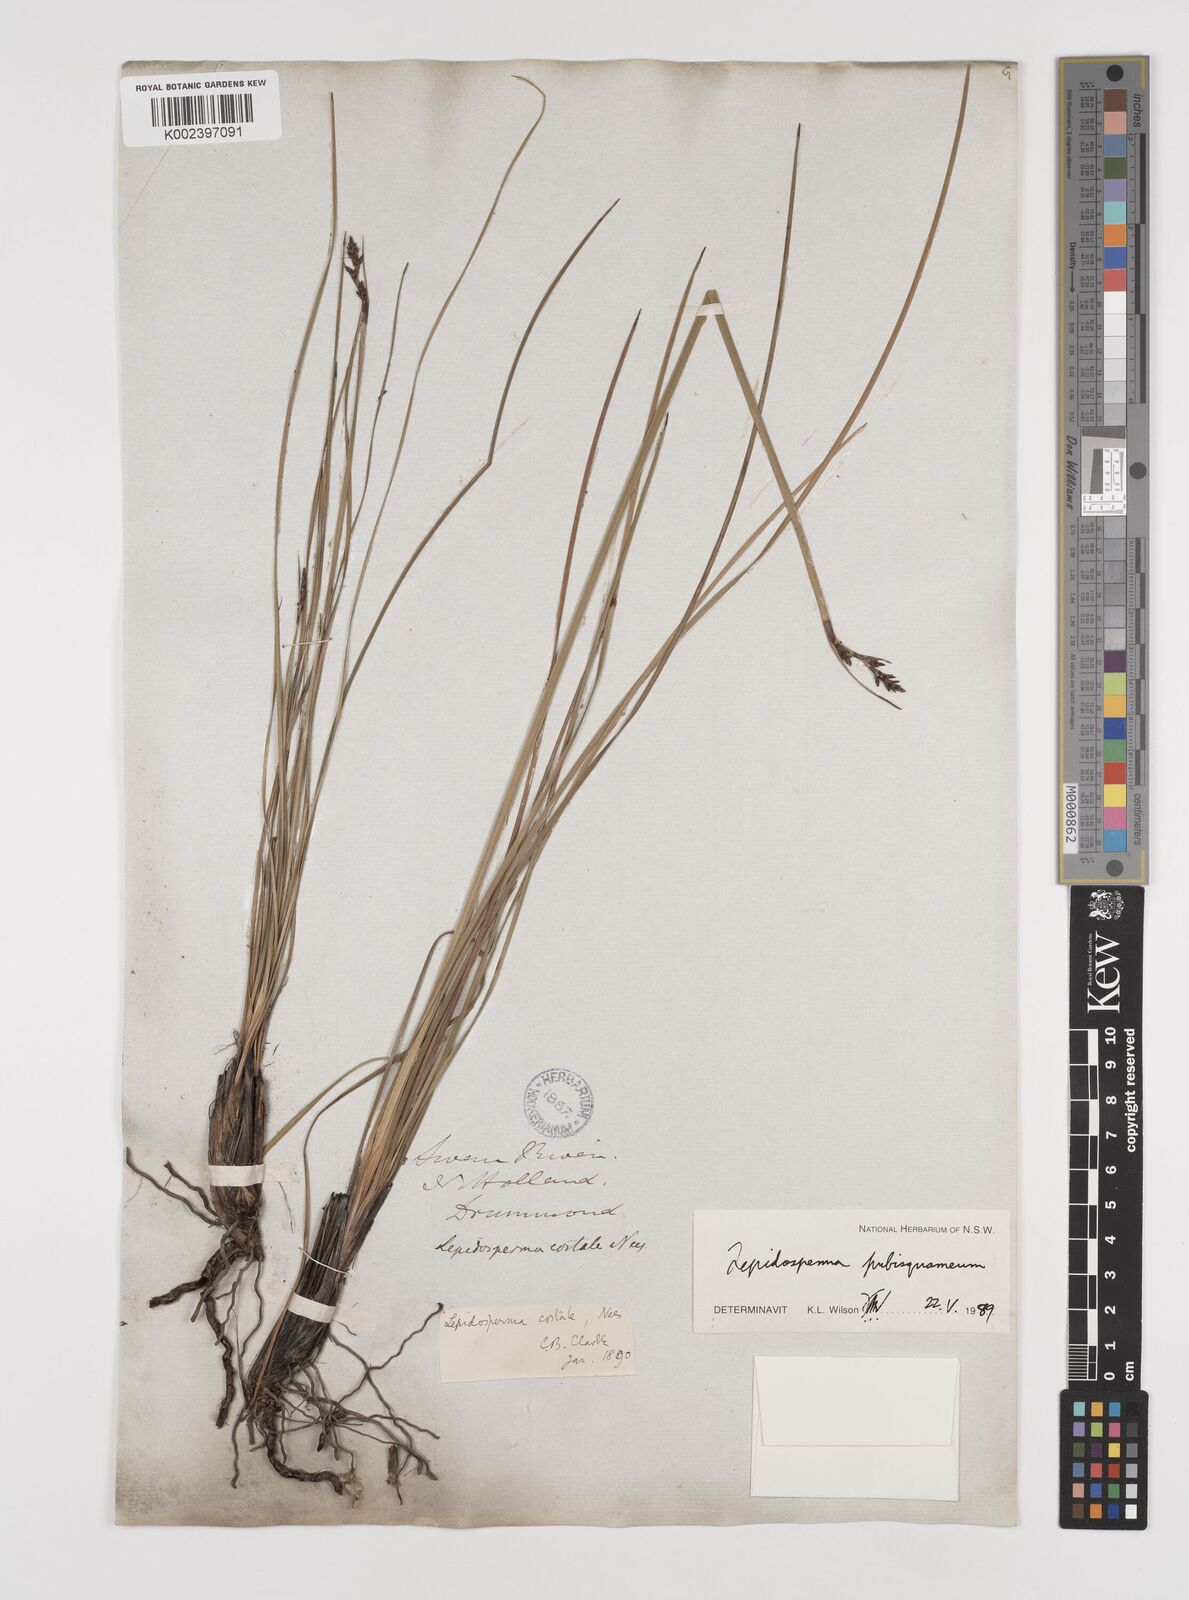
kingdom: Plantae
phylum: Tracheophyta
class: Liliopsida
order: Poales
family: Cyperaceae
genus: Lepidosperma
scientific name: Lepidosperma pubisquameum
